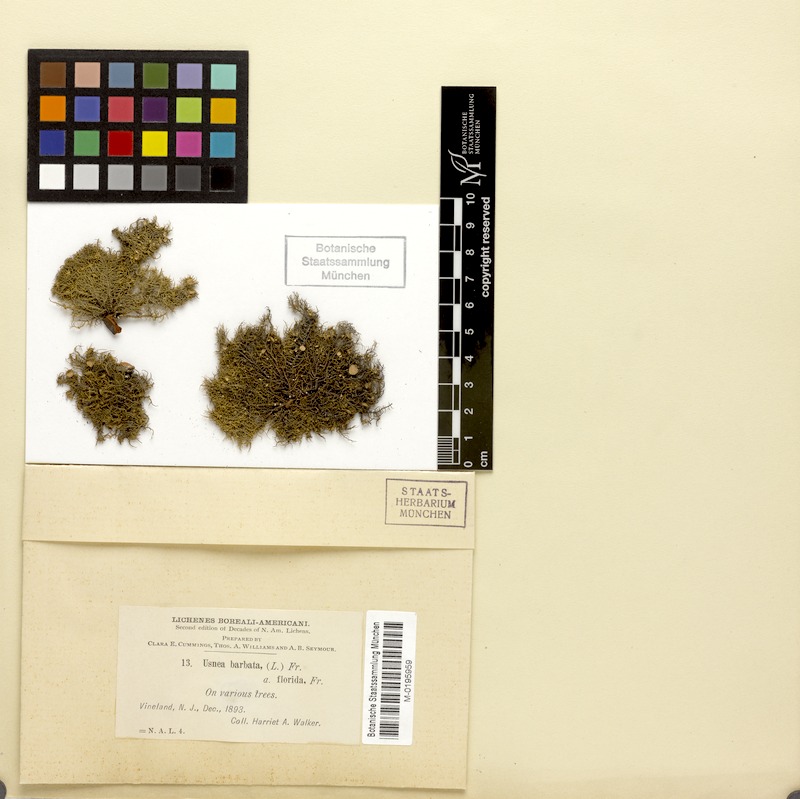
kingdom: Fungi
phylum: Ascomycota
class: Lecanoromycetes
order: Lecanorales
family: Parmeliaceae
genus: Usnea
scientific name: Usnea barbata
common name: Old man's beard lichen
